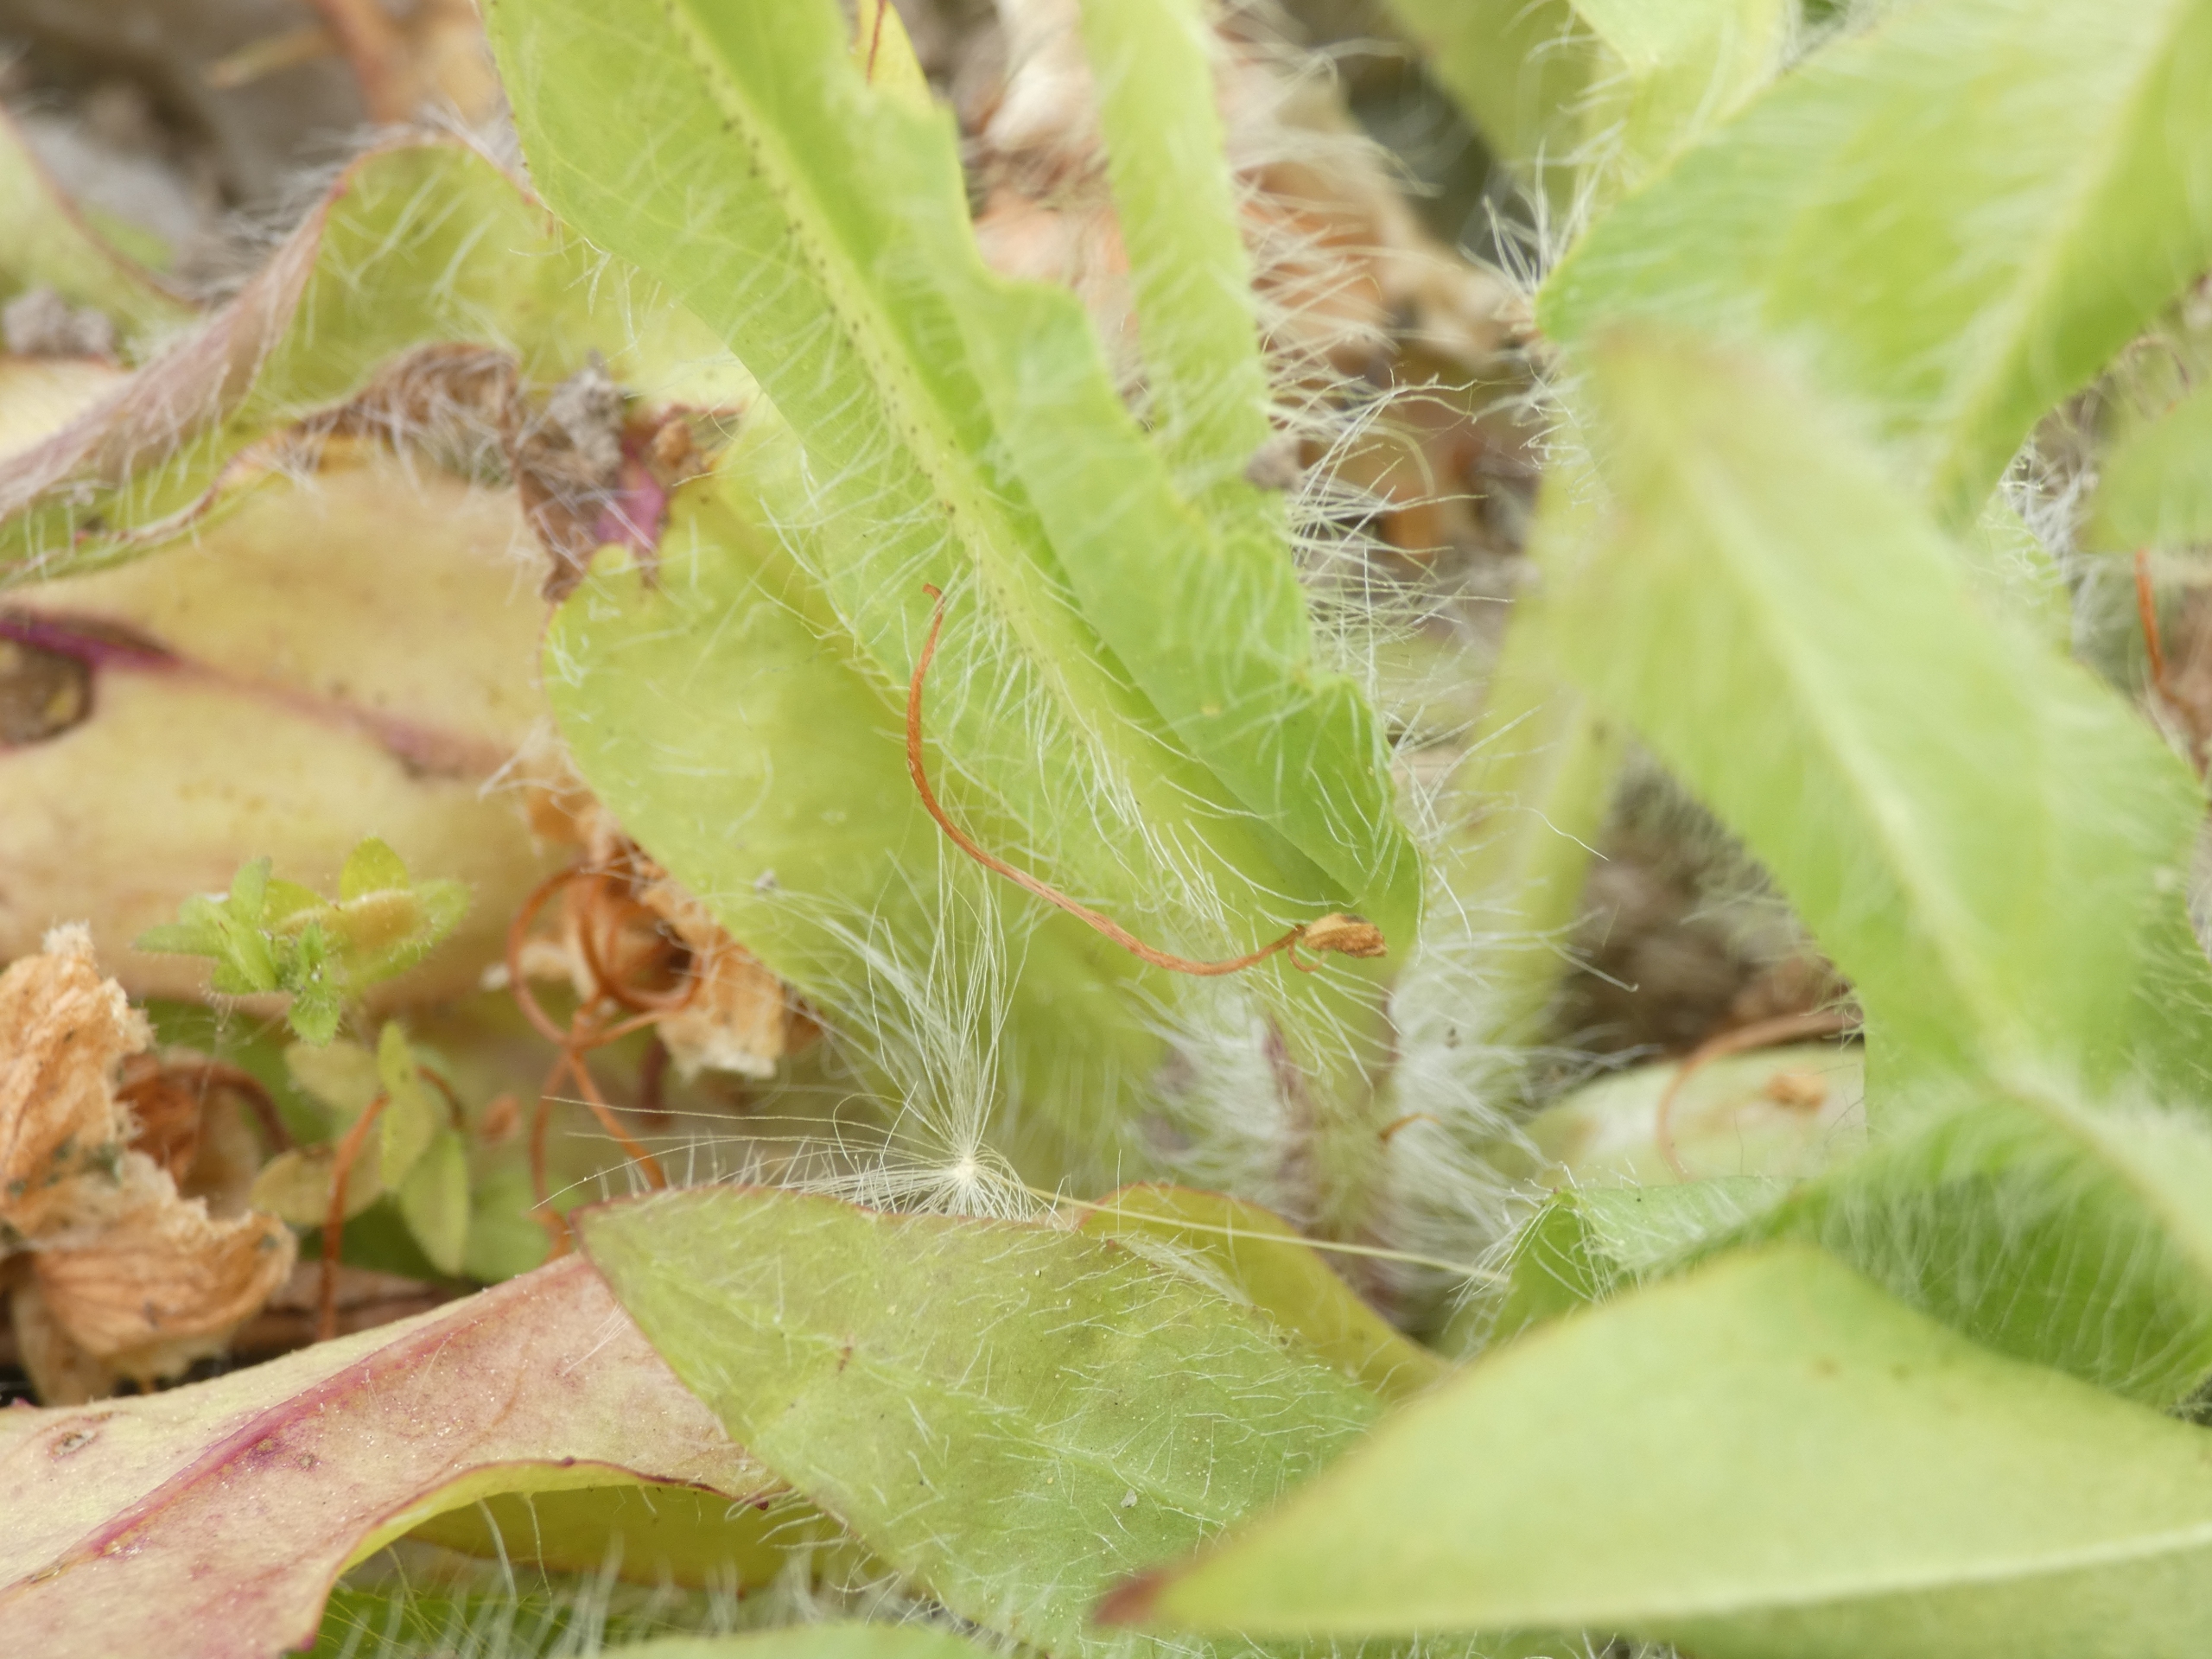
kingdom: Plantae
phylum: Tracheophyta
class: Magnoliopsida
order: Asterales
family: Asteraceae
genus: Pilosella
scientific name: Pilosella
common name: Pomerans-høgeurt × håret høgeurt
